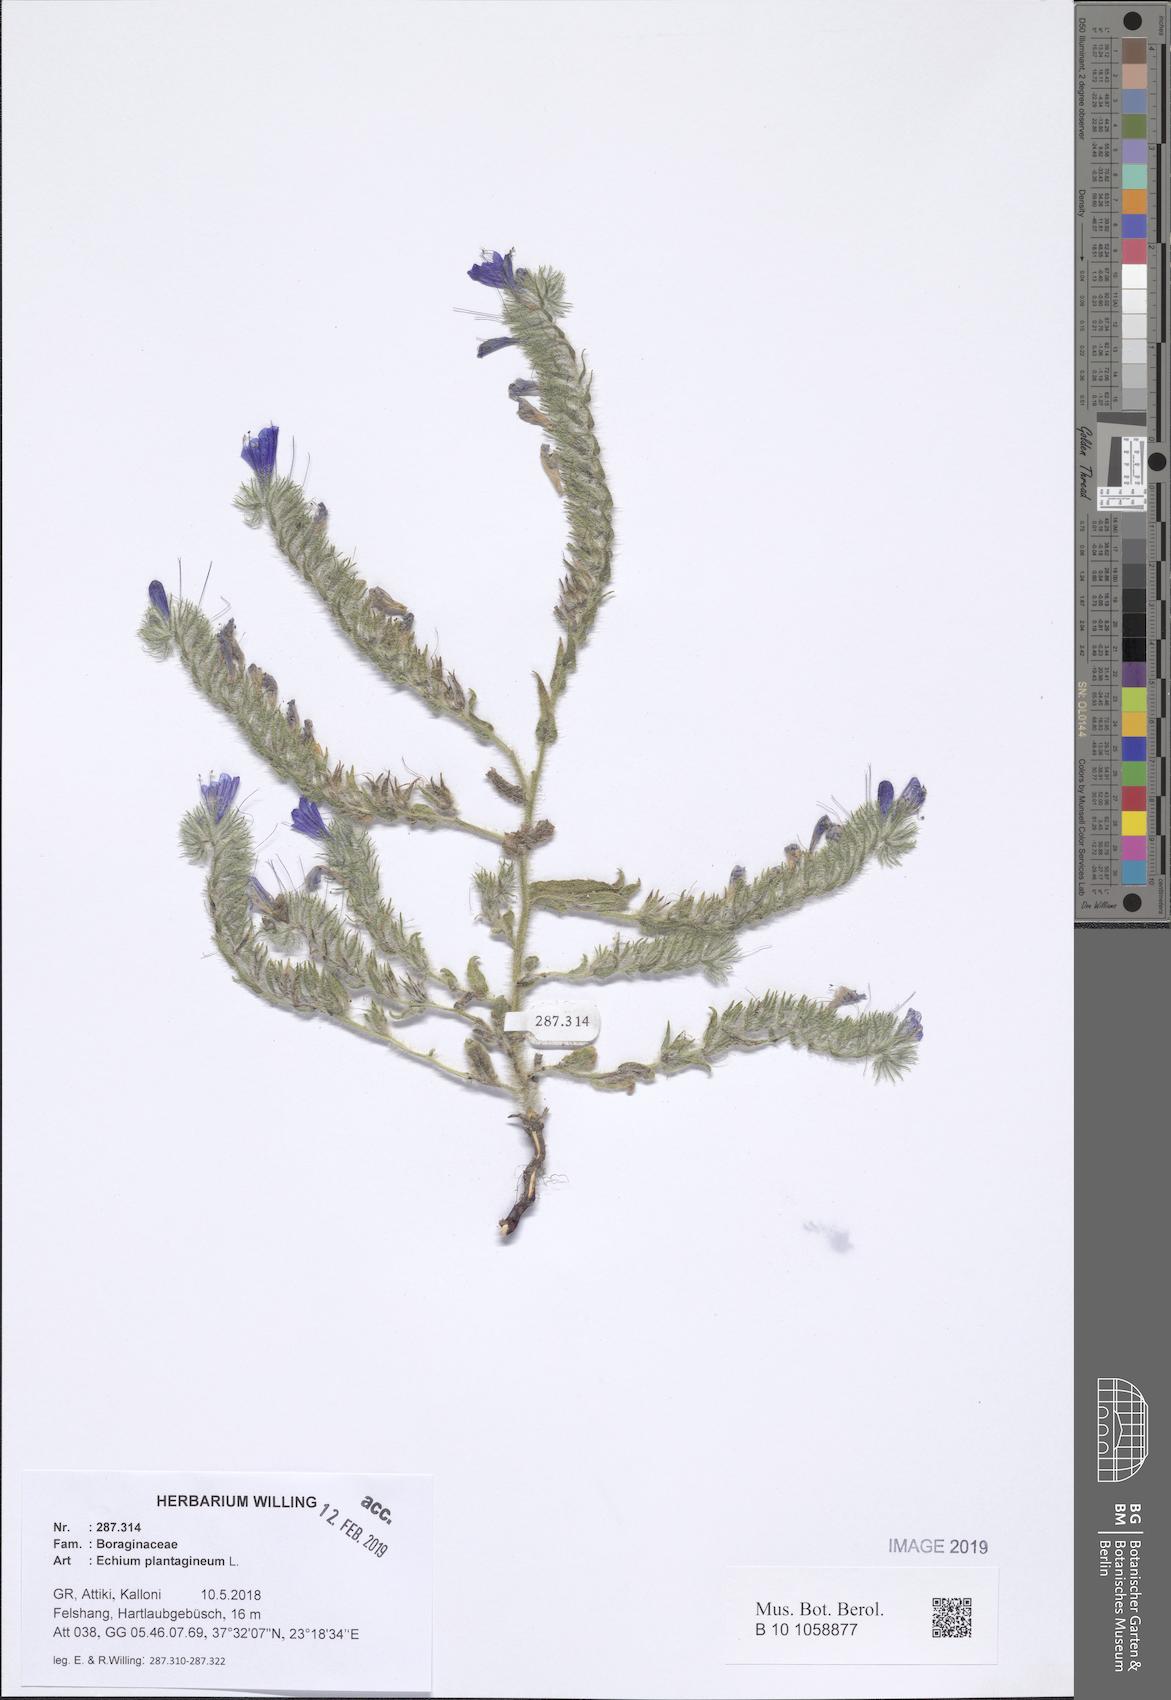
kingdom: Plantae
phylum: Tracheophyta
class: Magnoliopsida
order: Boraginales
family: Boraginaceae
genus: Echium
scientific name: Echium plantagineum
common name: Purple viper's-bugloss
